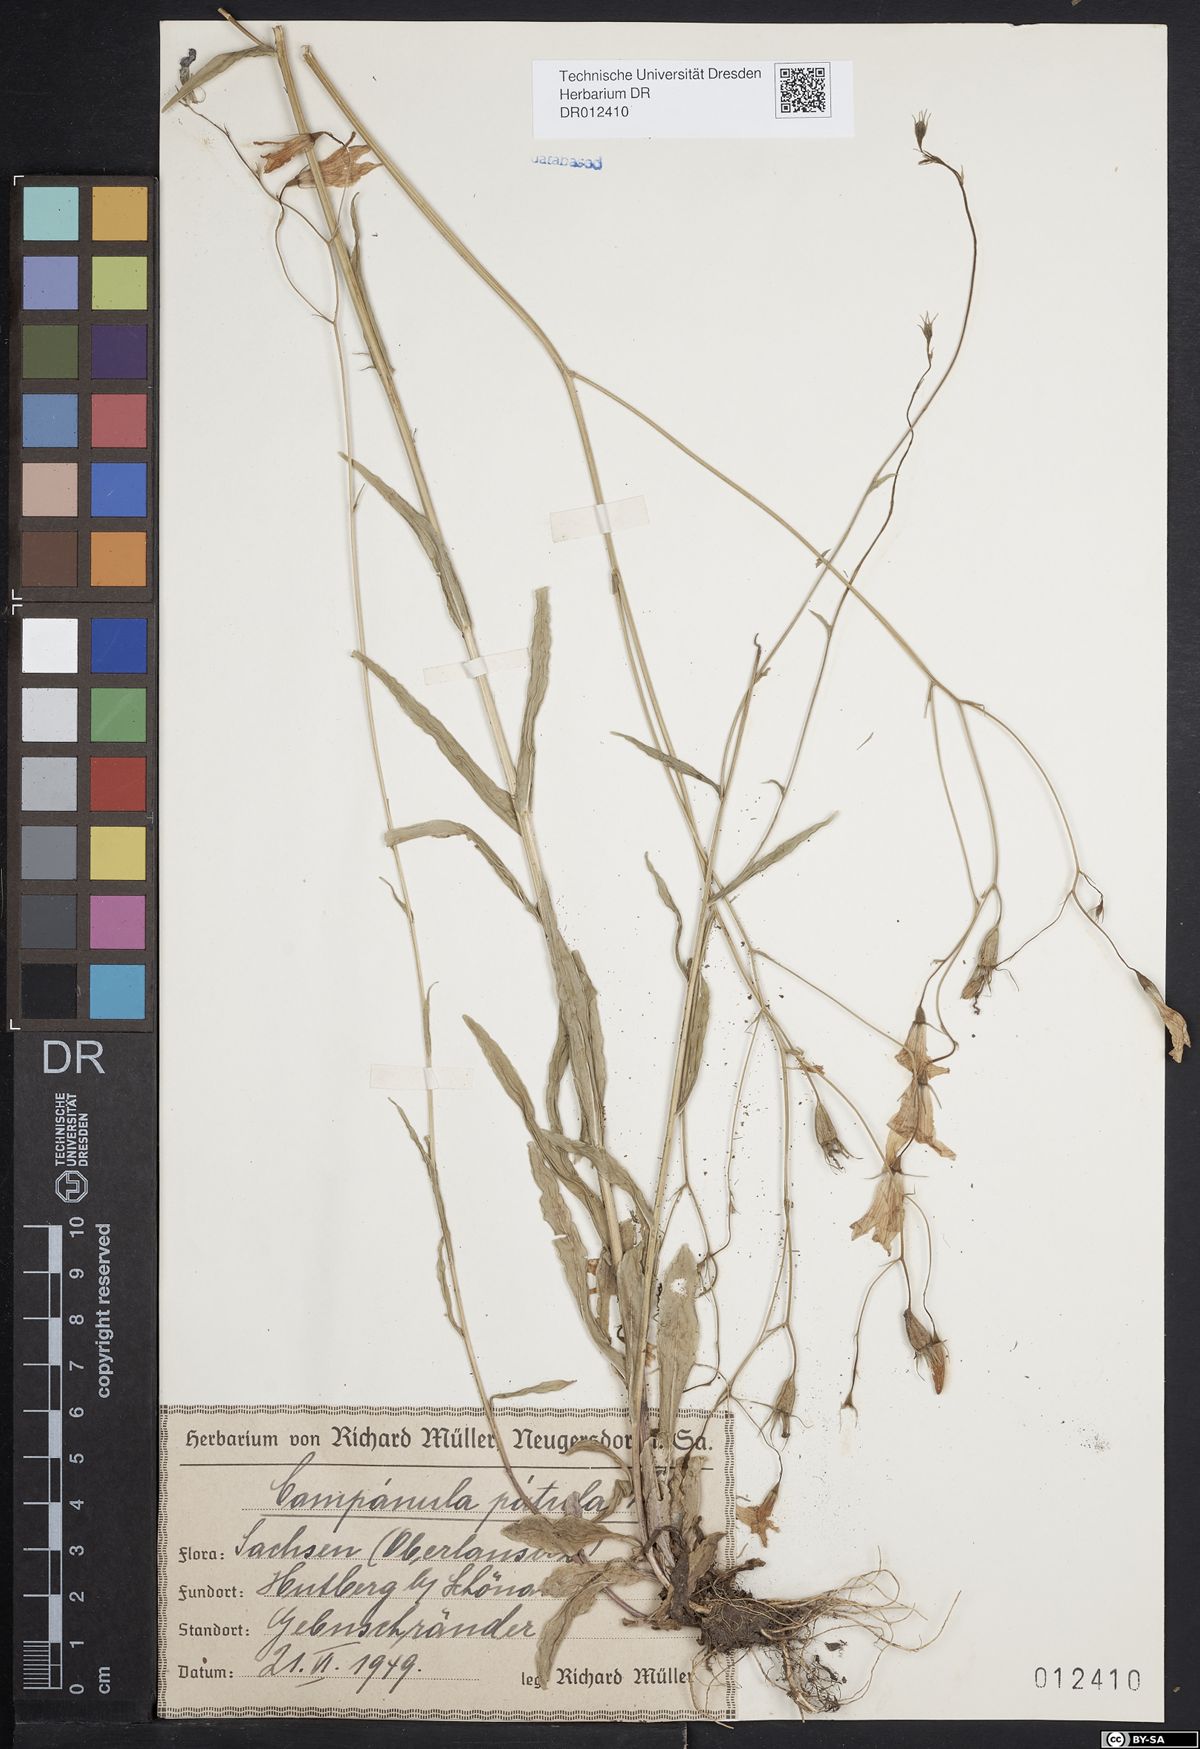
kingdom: Plantae
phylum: Tracheophyta
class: Magnoliopsida
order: Asterales
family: Campanulaceae
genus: Campanula
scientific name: Campanula patula
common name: Spreading bellflower
